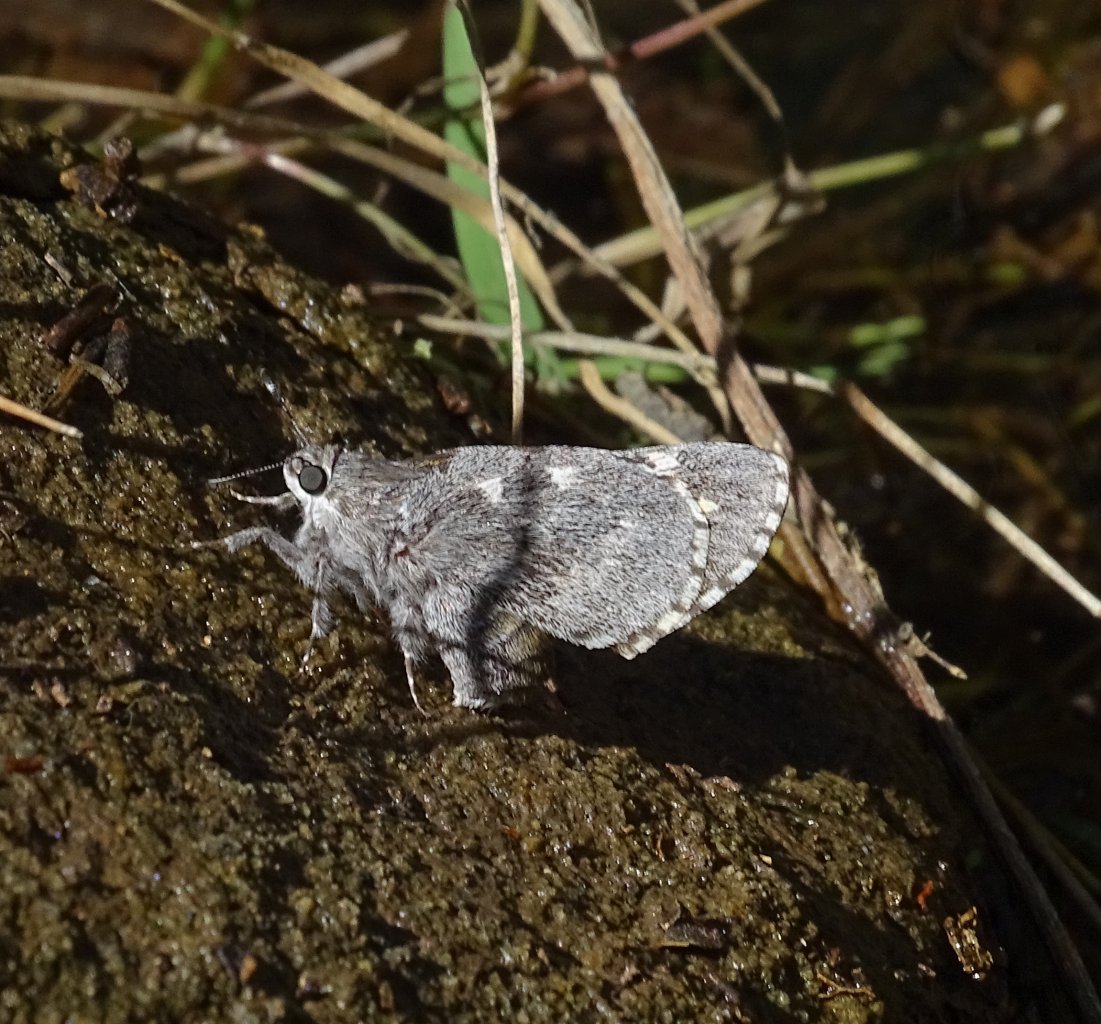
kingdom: Animalia
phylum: Arthropoda
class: Insecta
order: Lepidoptera
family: Hesperiidae
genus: Agathymus
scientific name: Agathymus aryxna
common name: Arizona Giant-Skipper
